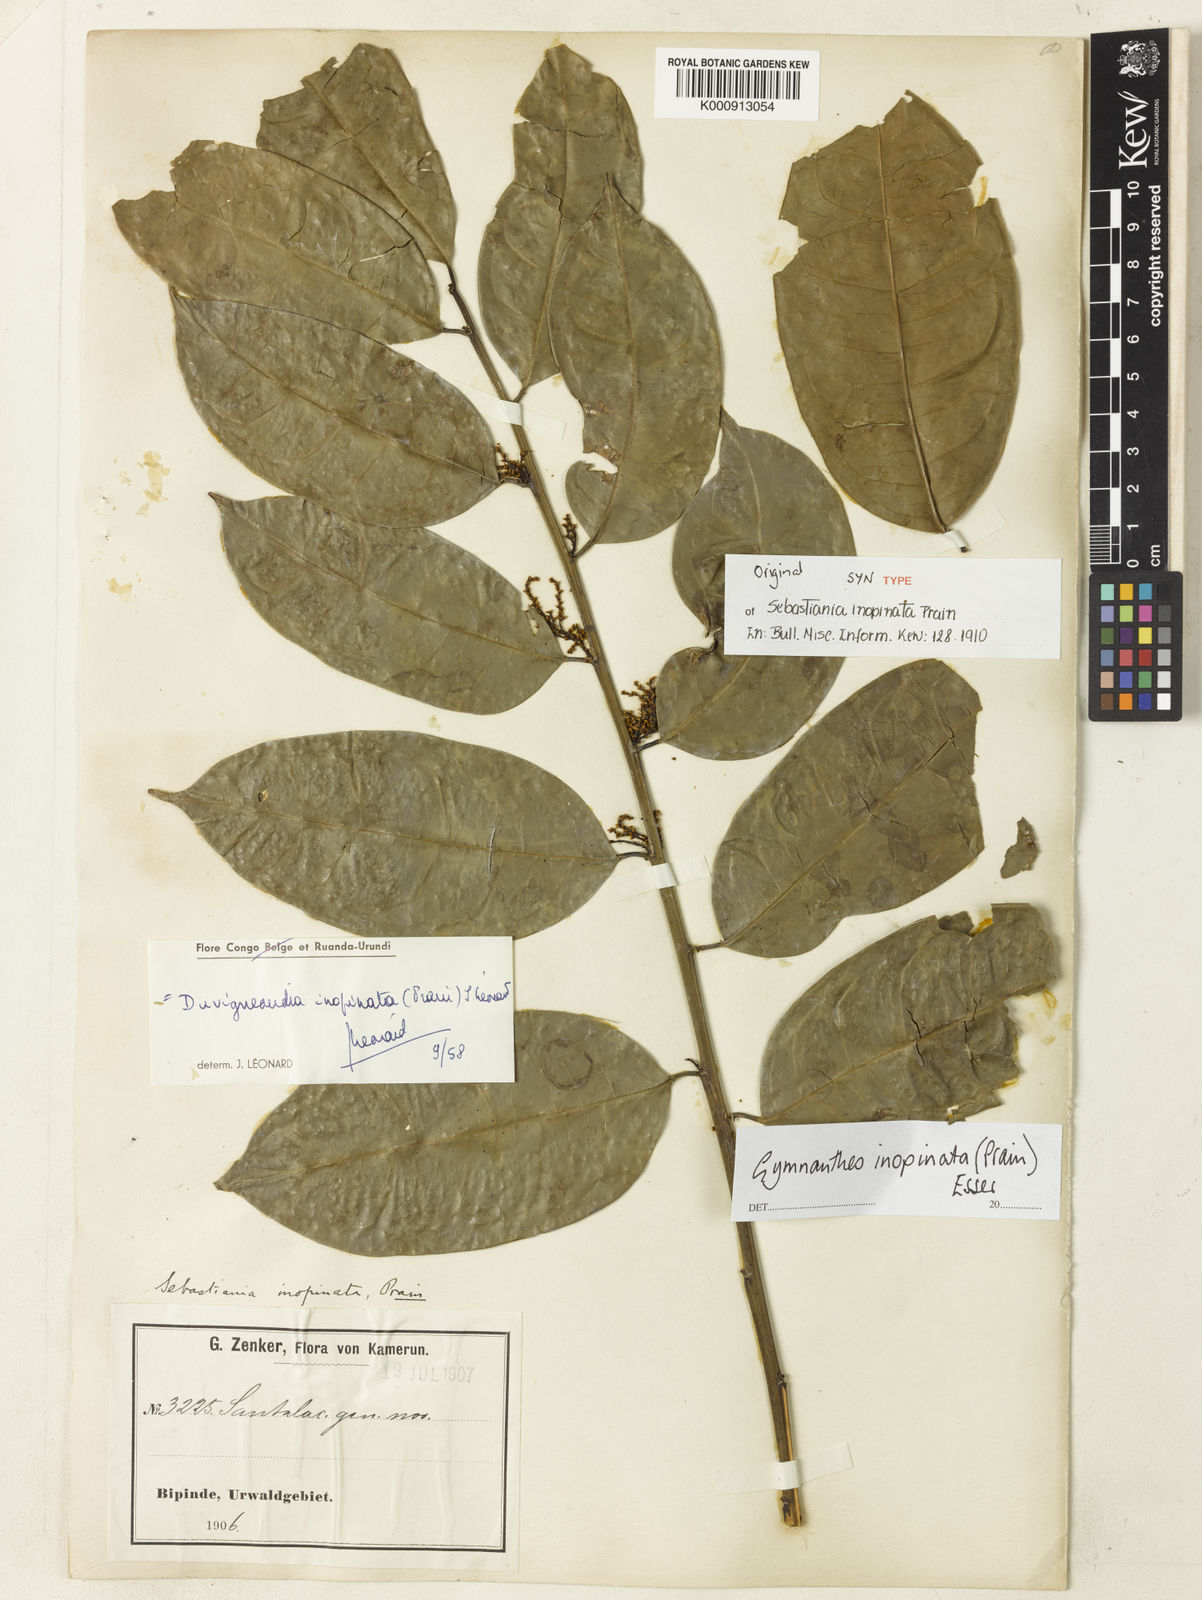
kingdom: Plantae
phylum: Tracheophyta
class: Magnoliopsida
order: Malpighiales
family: Euphorbiaceae
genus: Gymnanthes
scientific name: Gymnanthes inopinata
